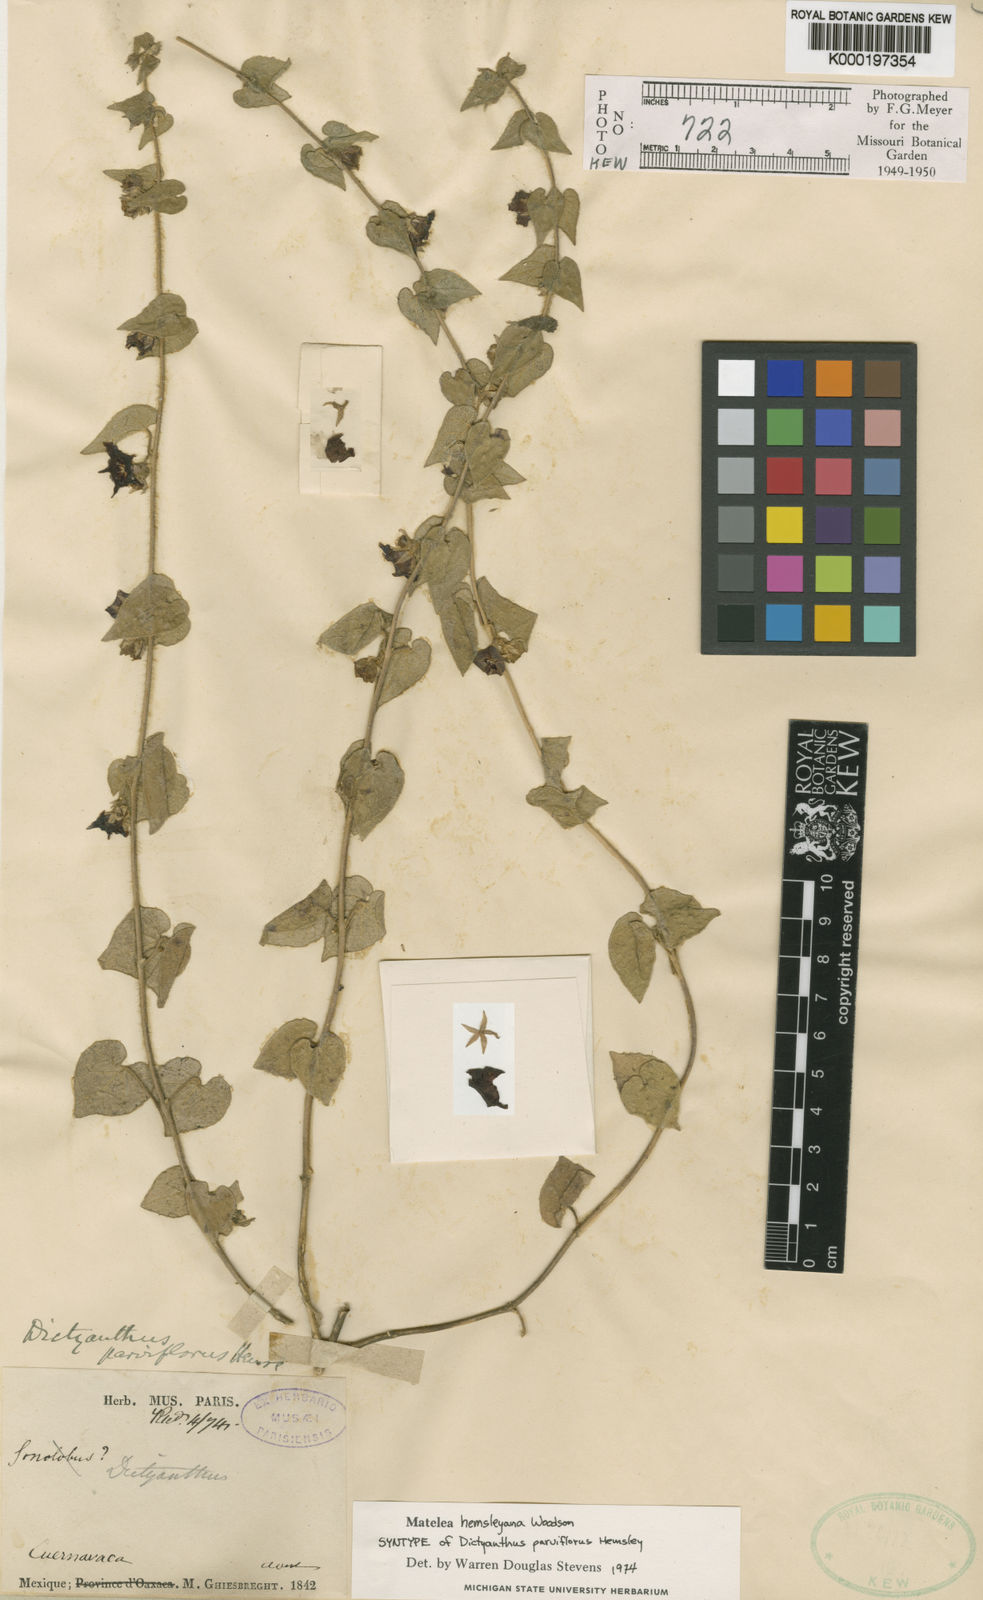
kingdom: Plantae
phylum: Tracheophyta
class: Magnoliopsida
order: Gentianales
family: Apocynaceae
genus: Dictyanthus
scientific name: Dictyanthus parviflorus
